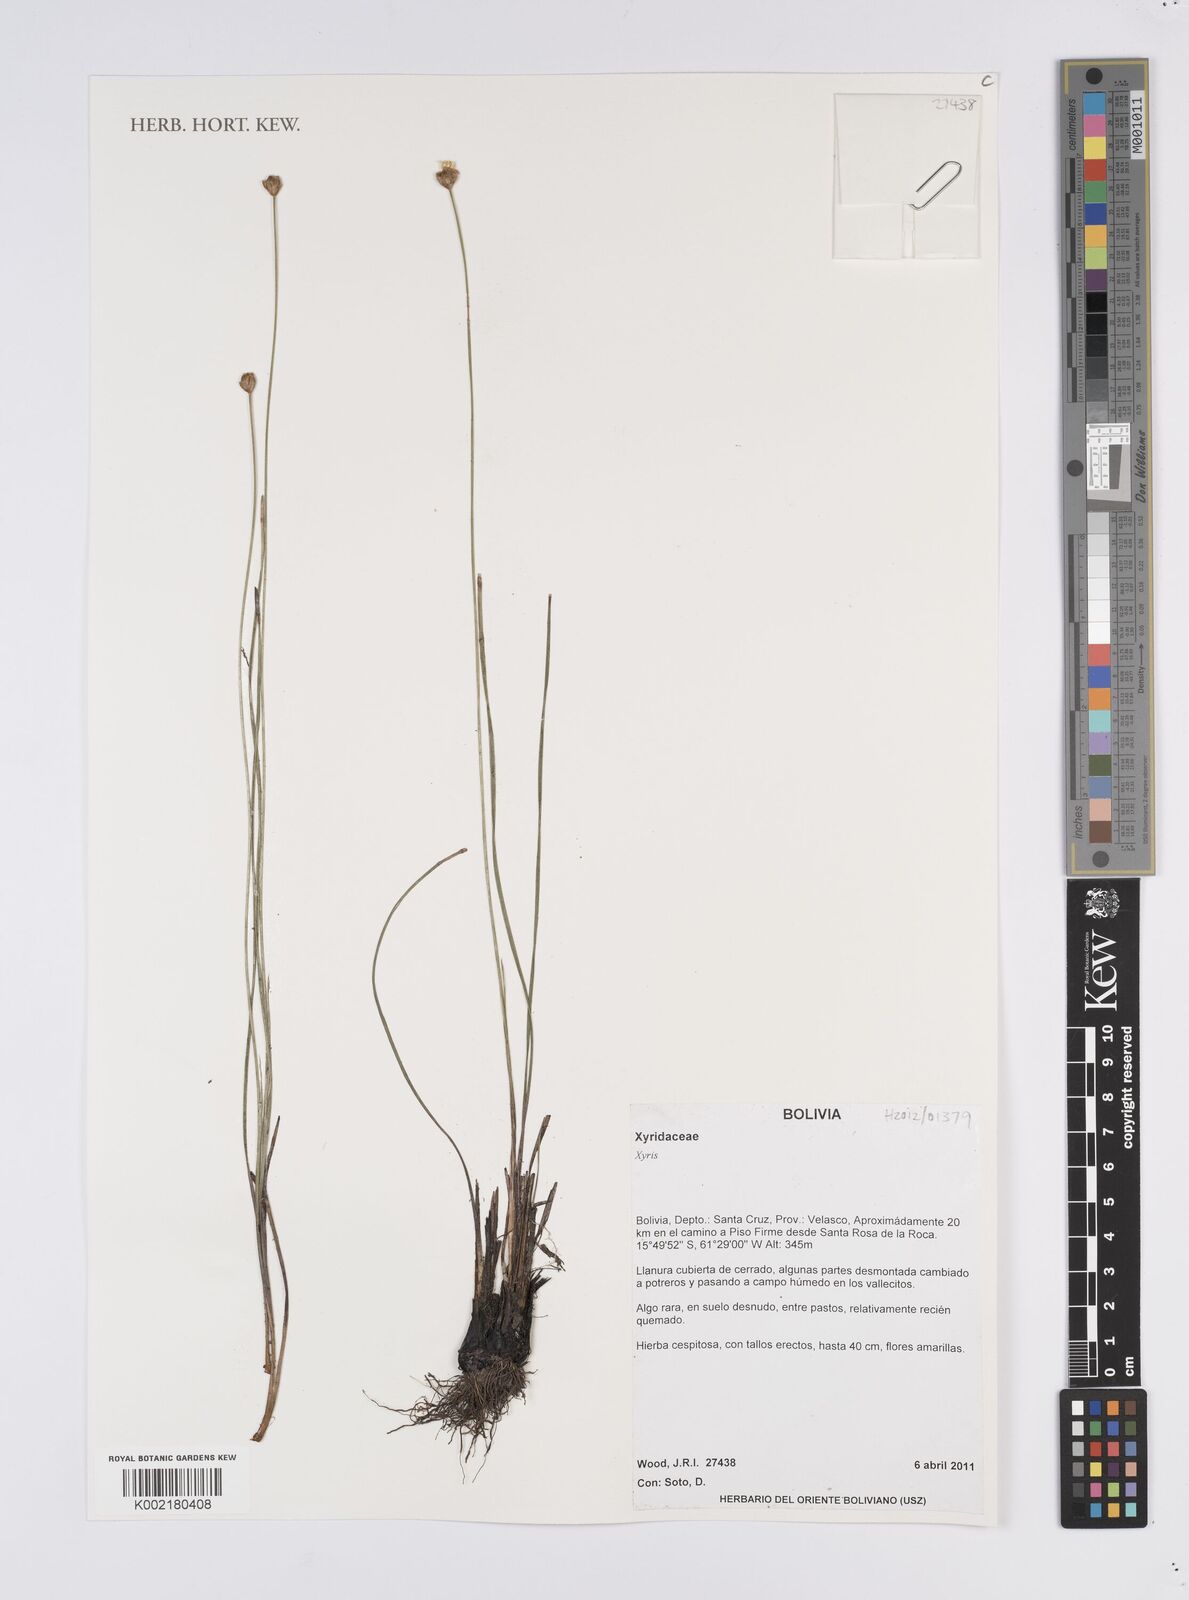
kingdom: Plantae
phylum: Tracheophyta
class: Liliopsida
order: Poales
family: Xyridaceae
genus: Xyris
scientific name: Xyris
